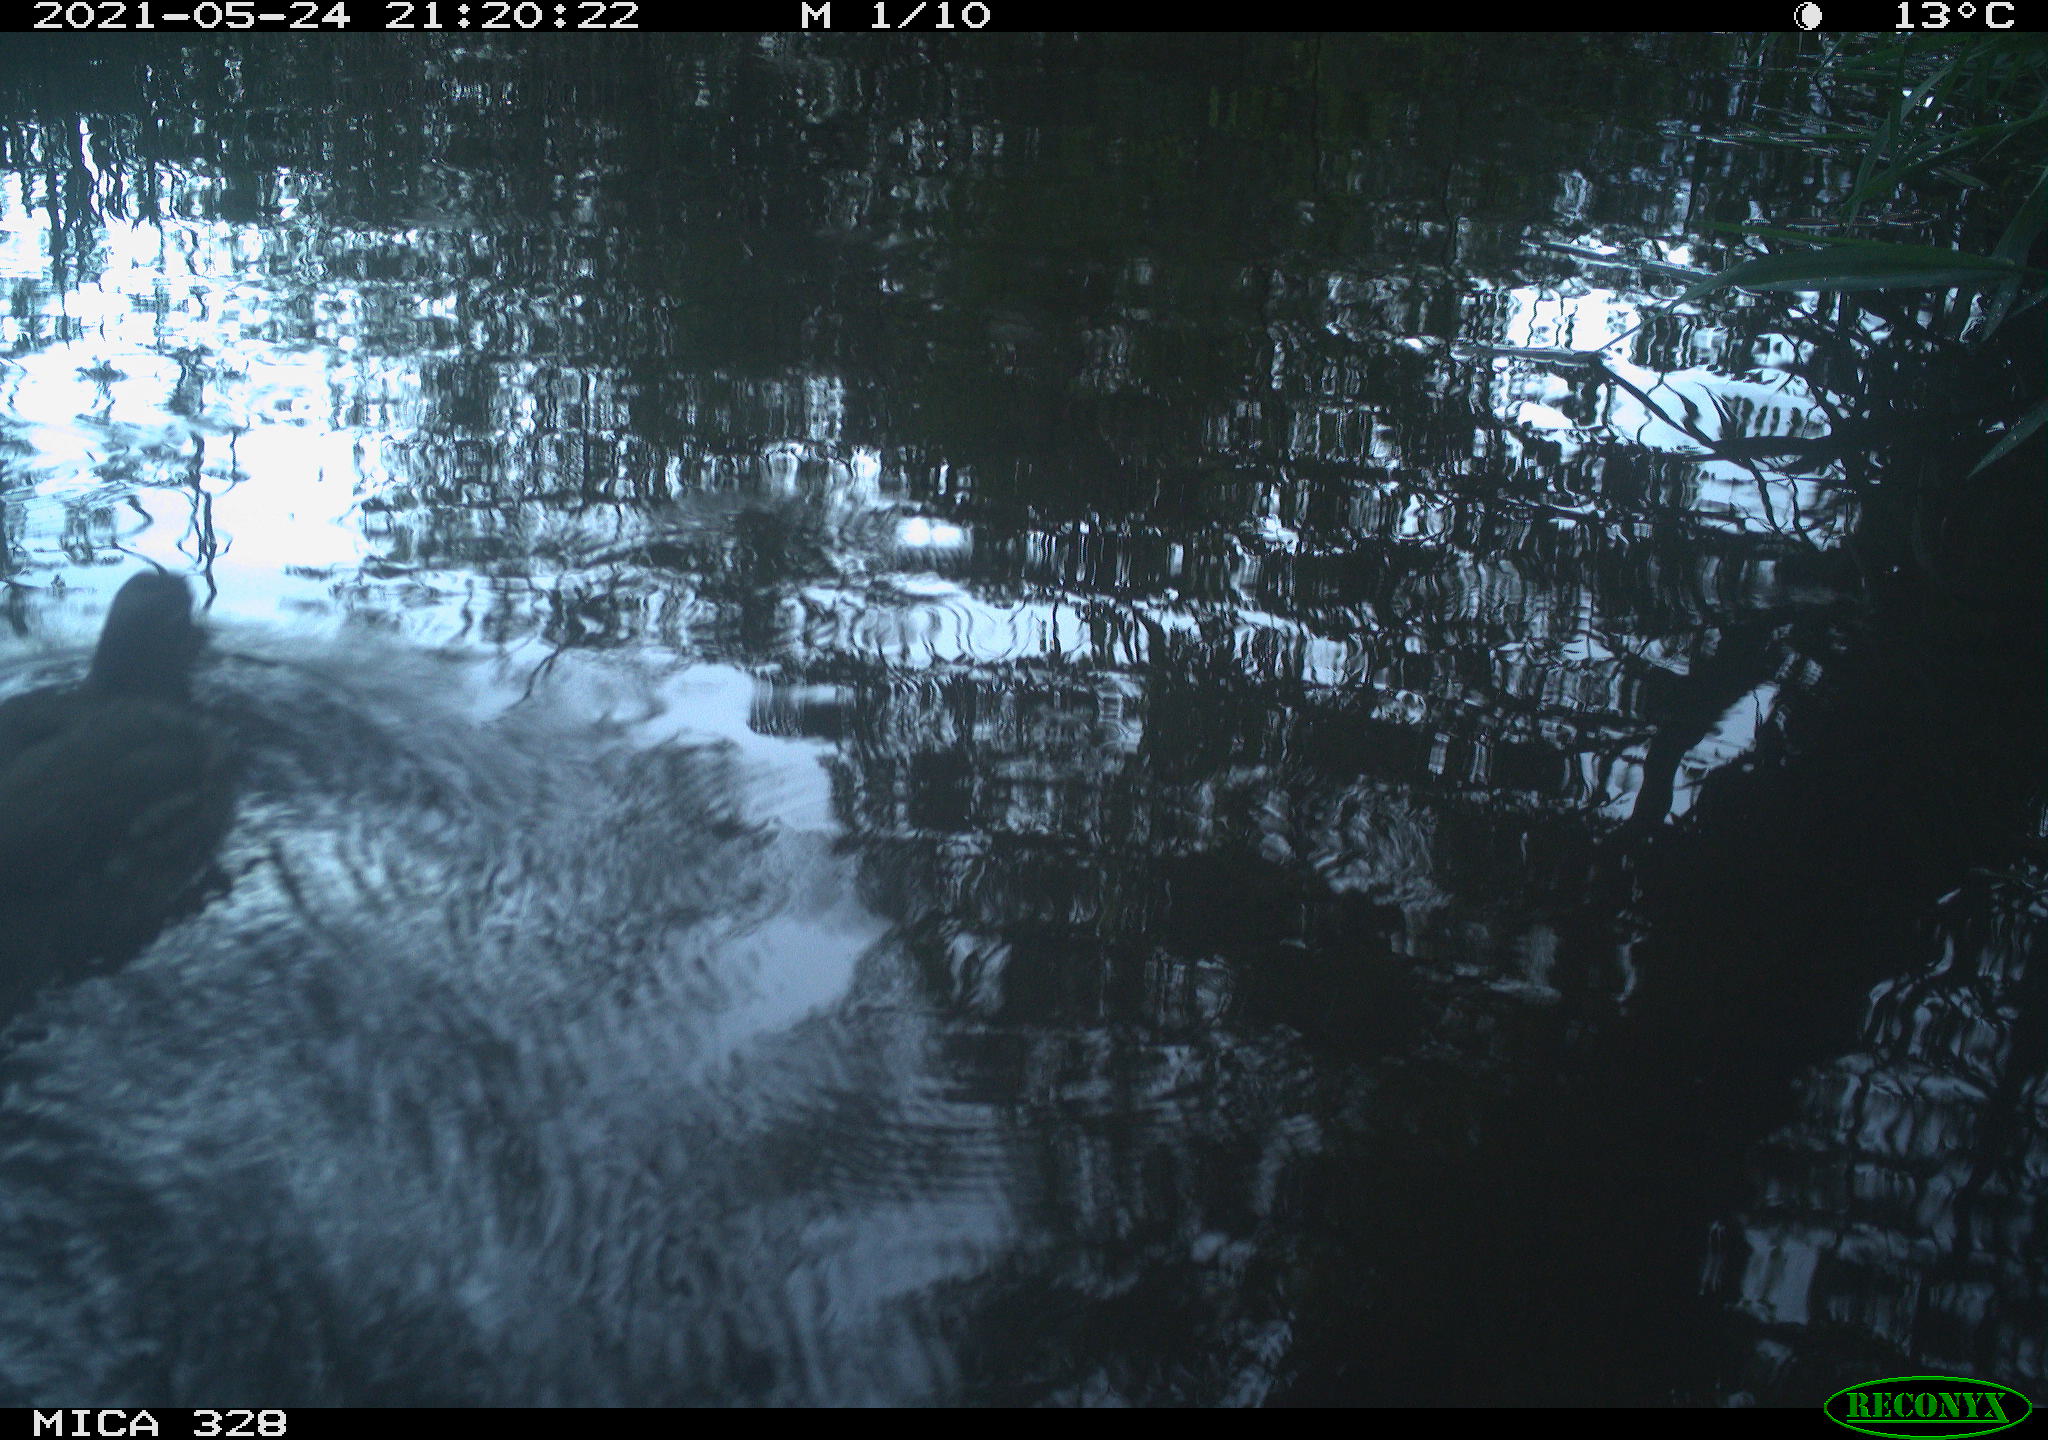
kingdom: Animalia
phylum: Chordata
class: Aves
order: Anseriformes
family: Anatidae
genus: Aix
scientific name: Aix galericulata
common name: Mandarin duck
